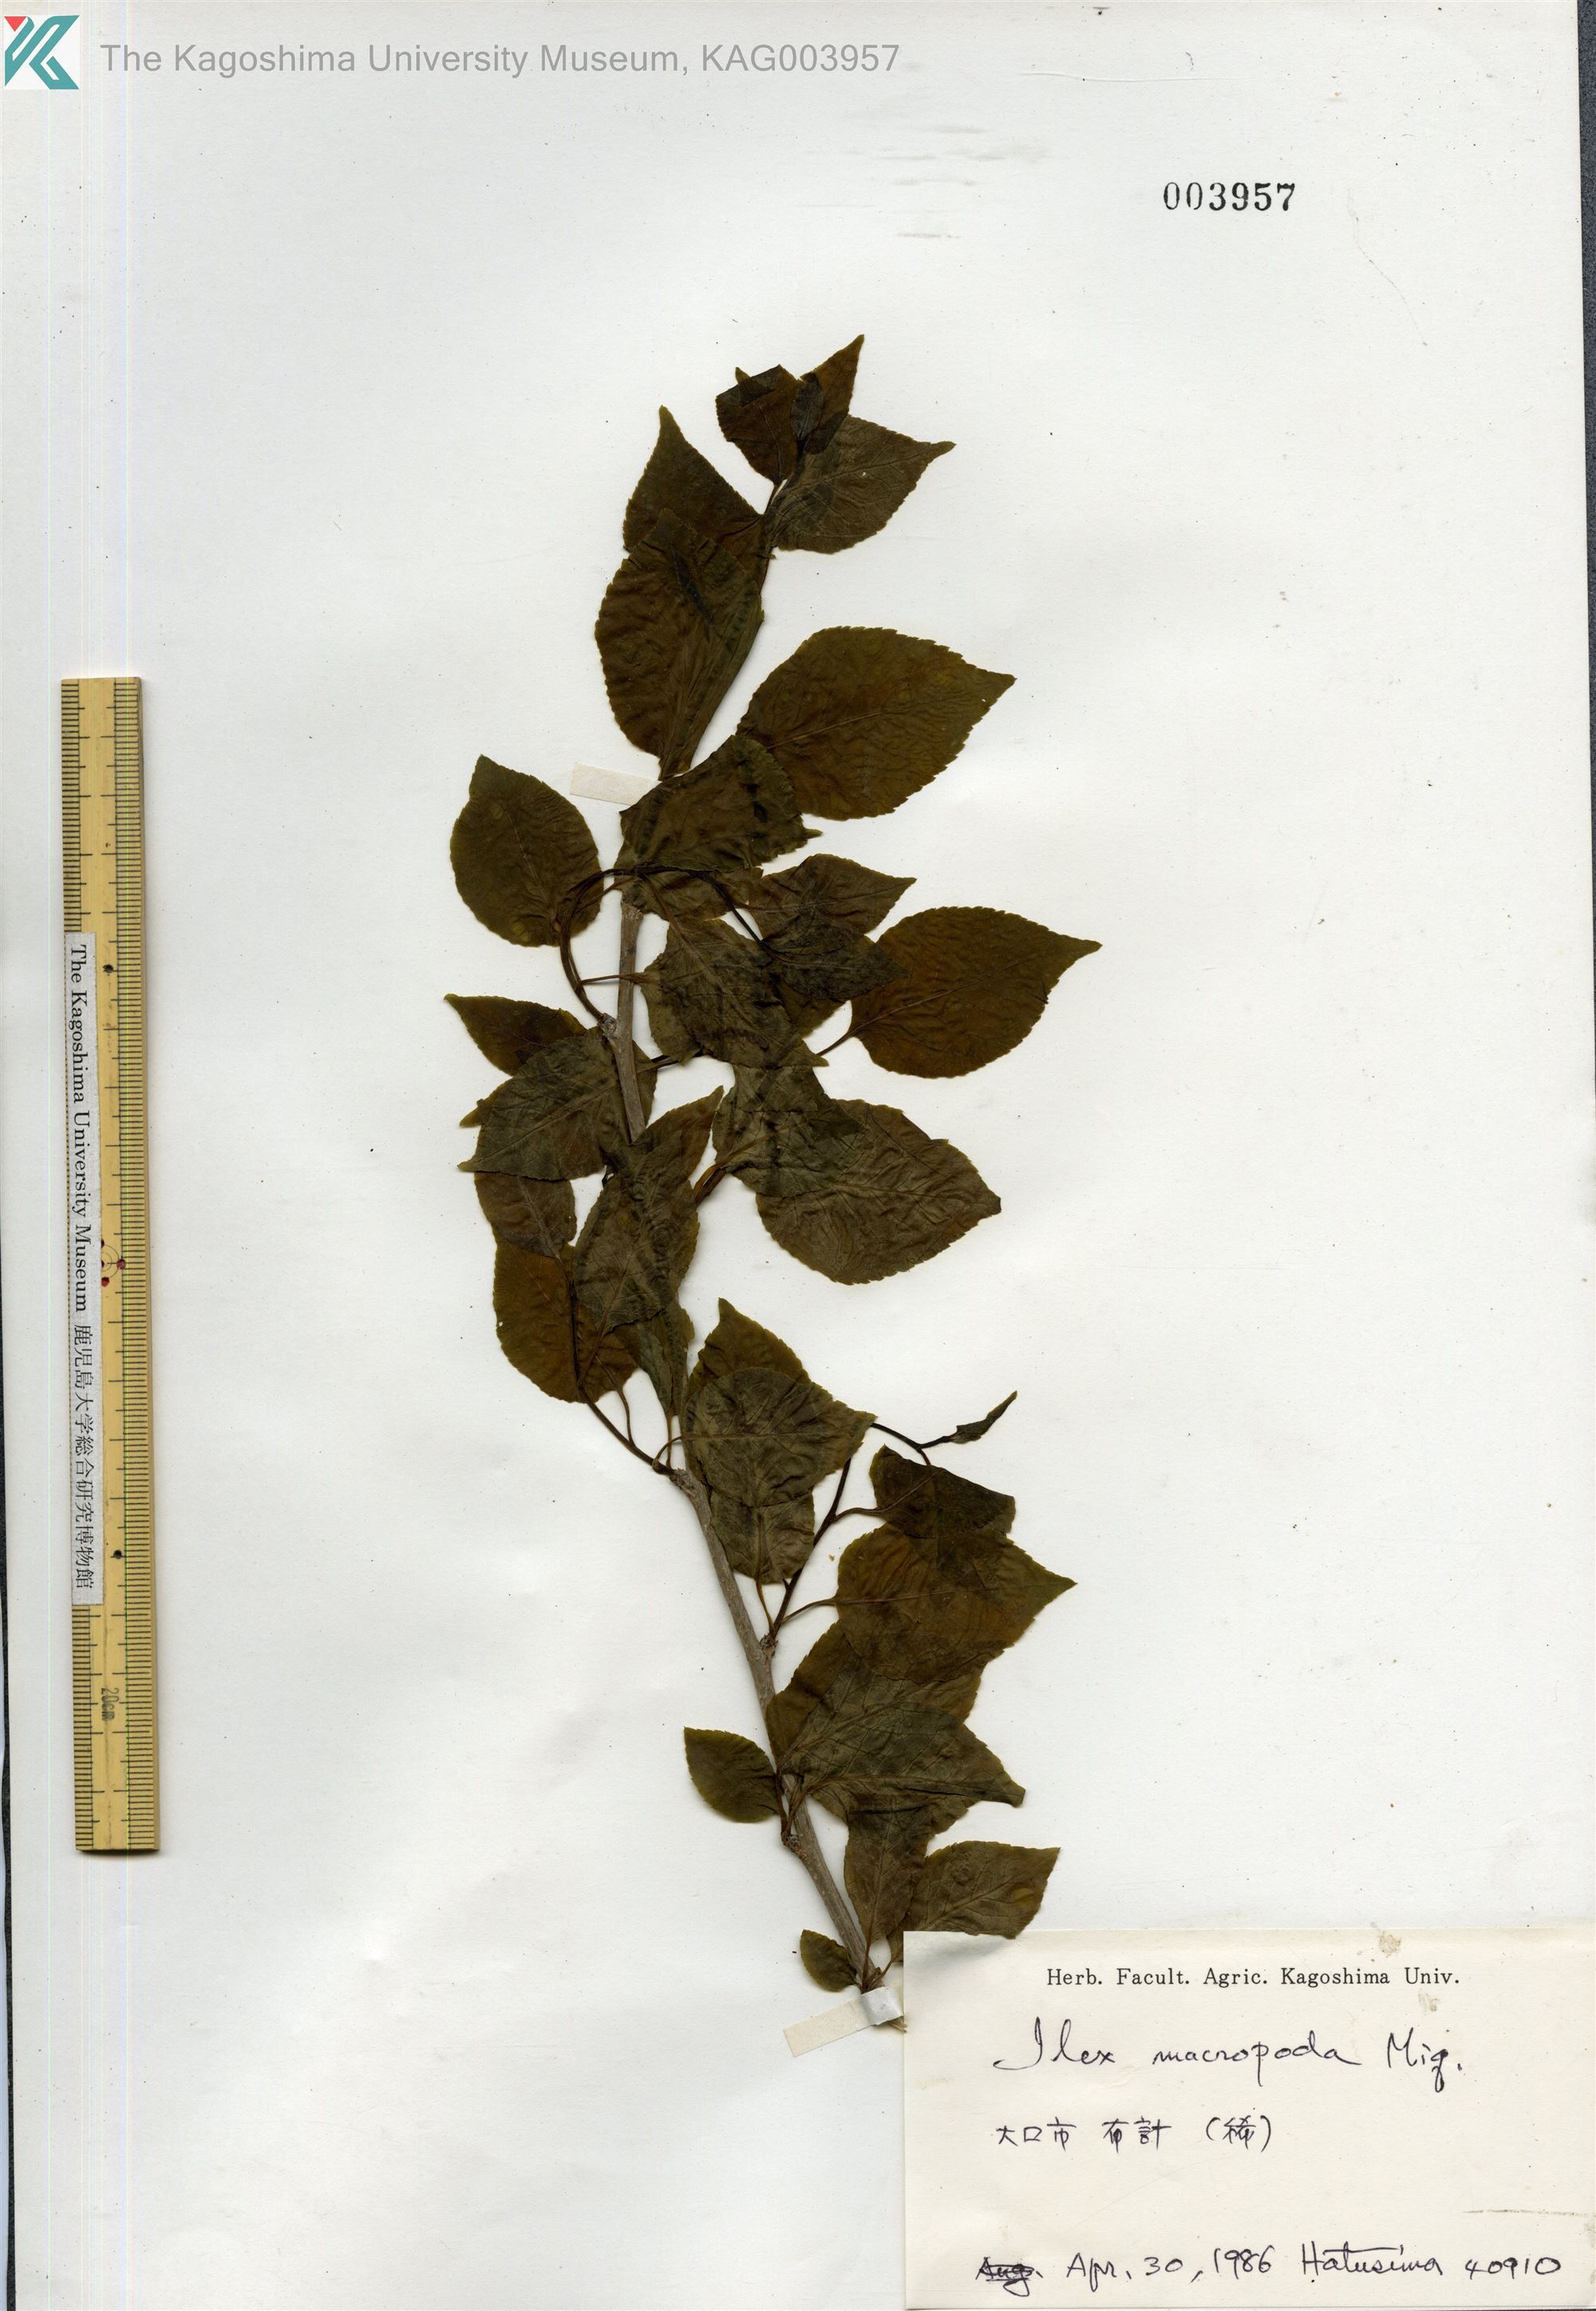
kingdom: Plantae
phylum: Tracheophyta
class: Magnoliopsida
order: Aquifoliales
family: Aquifoliaceae
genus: Ilex
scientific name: Ilex macropoda
